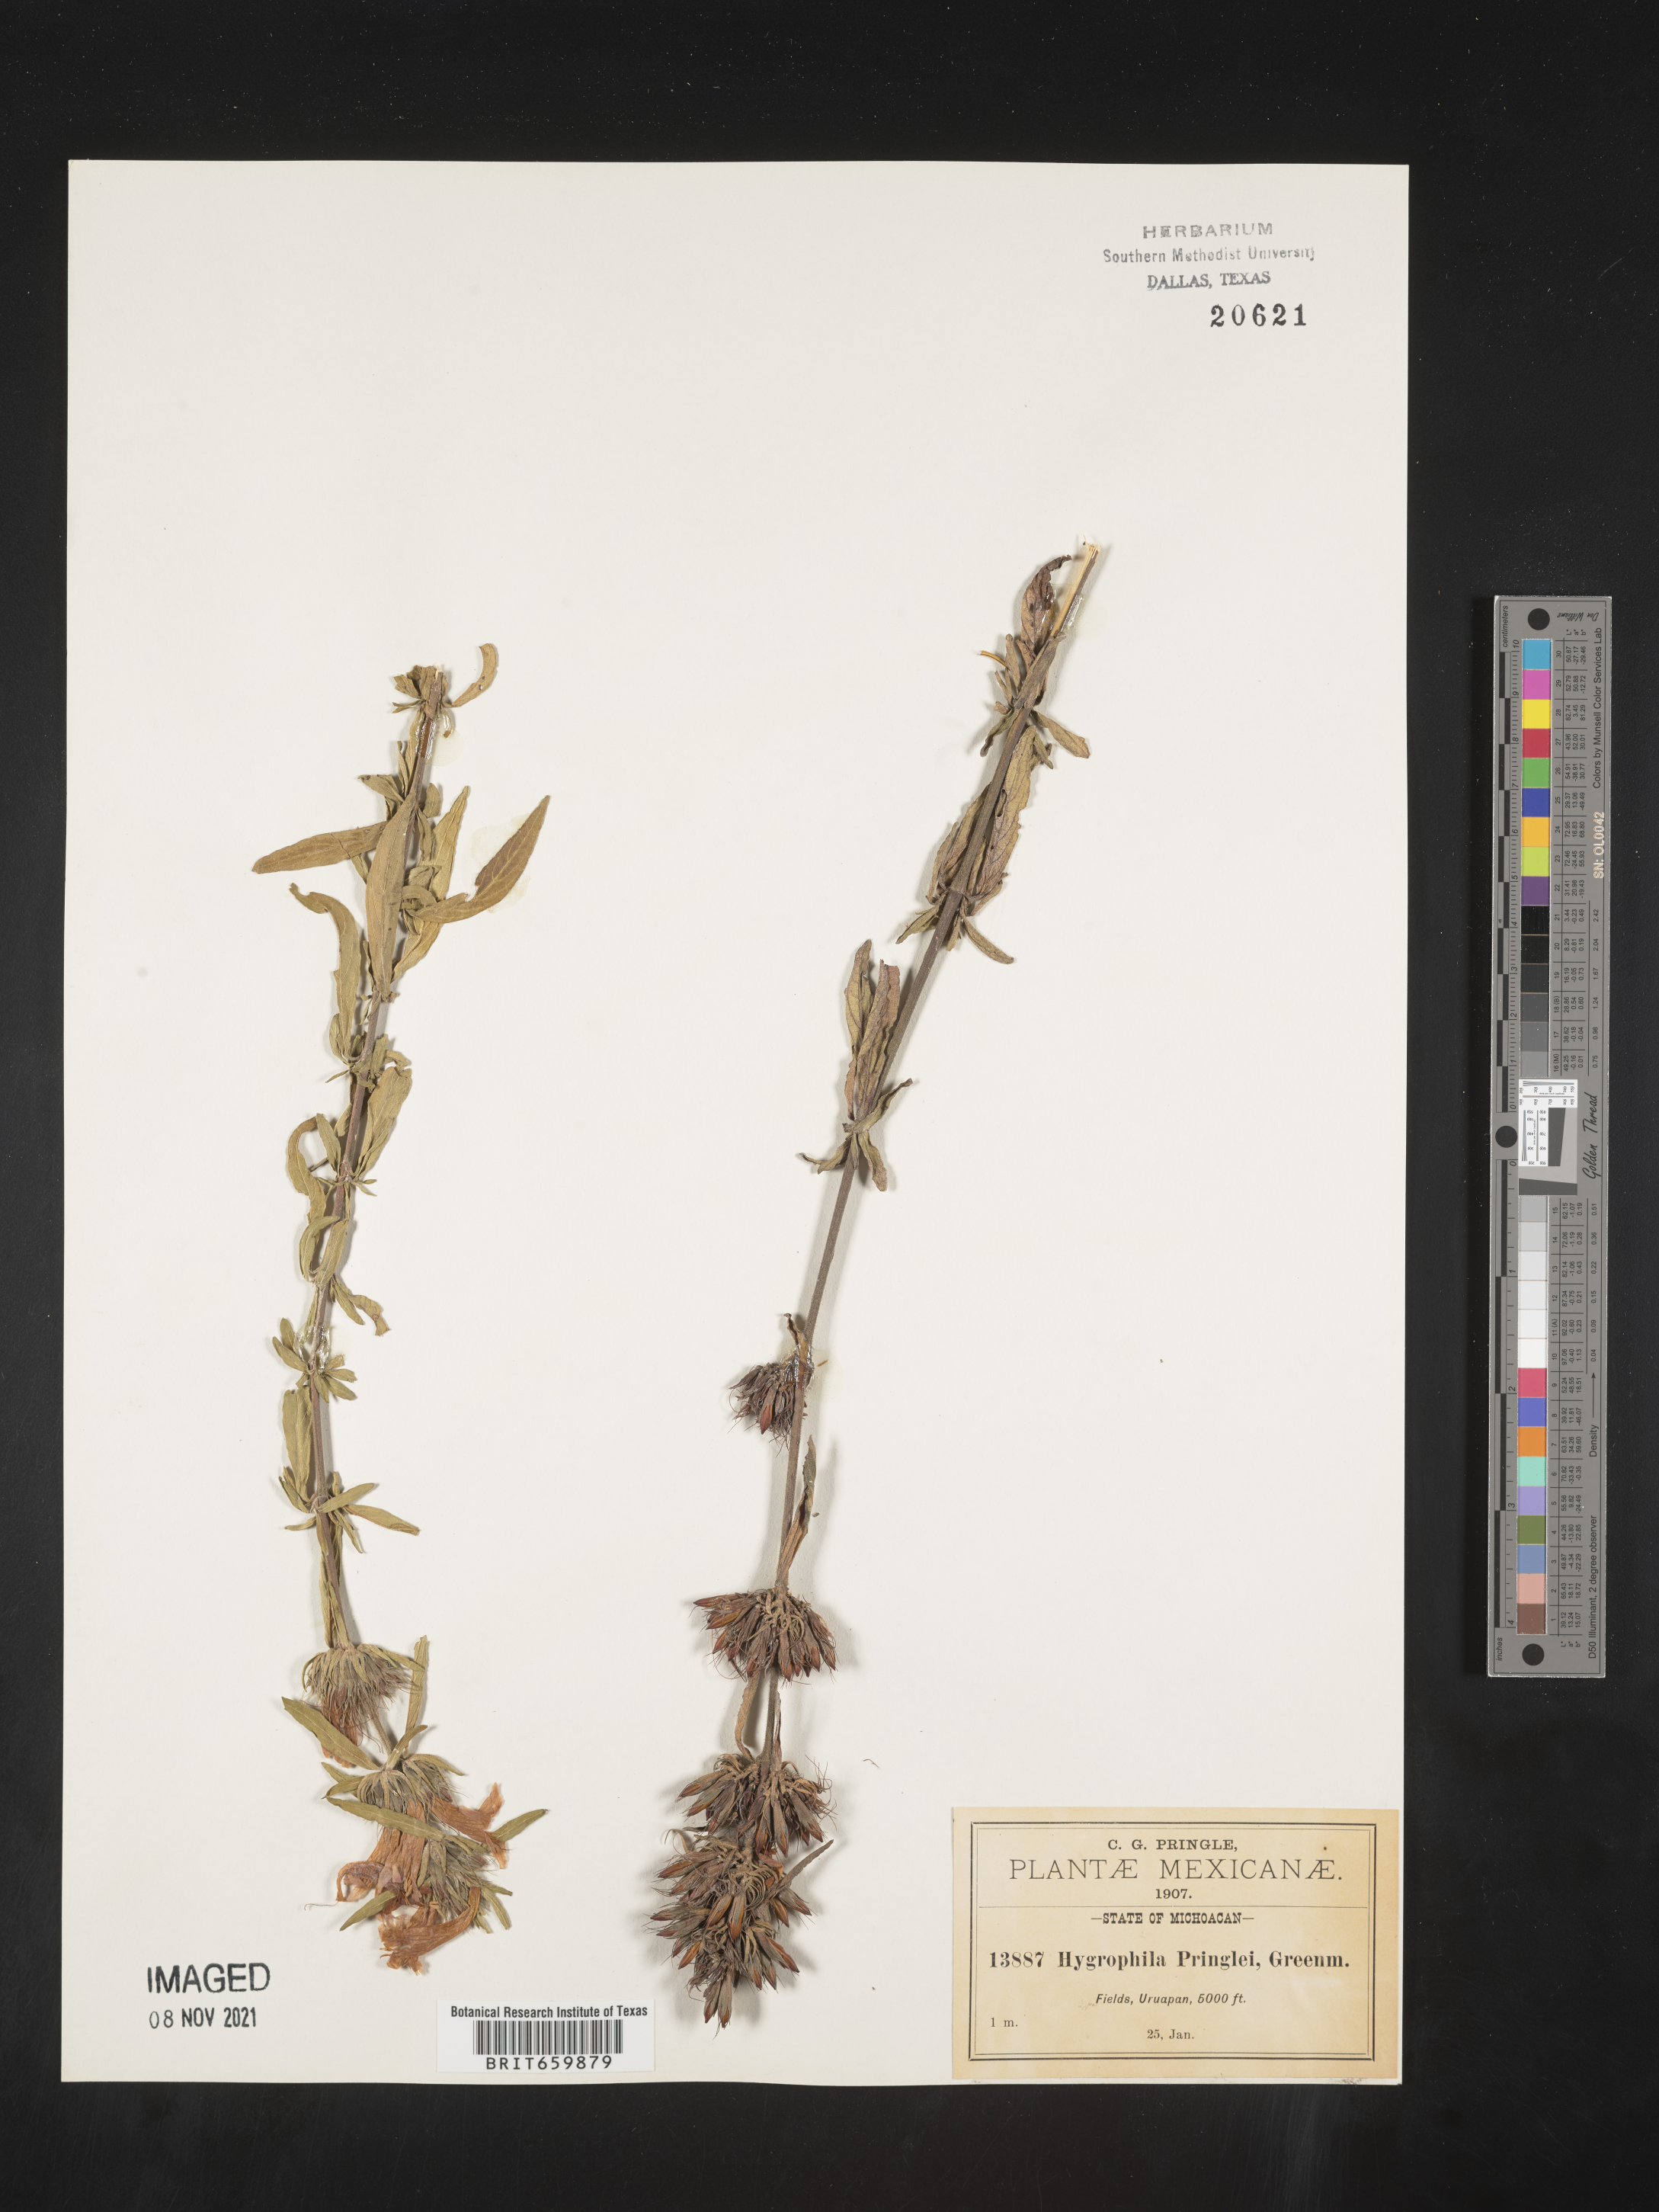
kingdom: Plantae
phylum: Tracheophyta
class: Magnoliopsida
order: Lamiales
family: Acanthaceae
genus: Hygrophila
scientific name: Hygrophila
